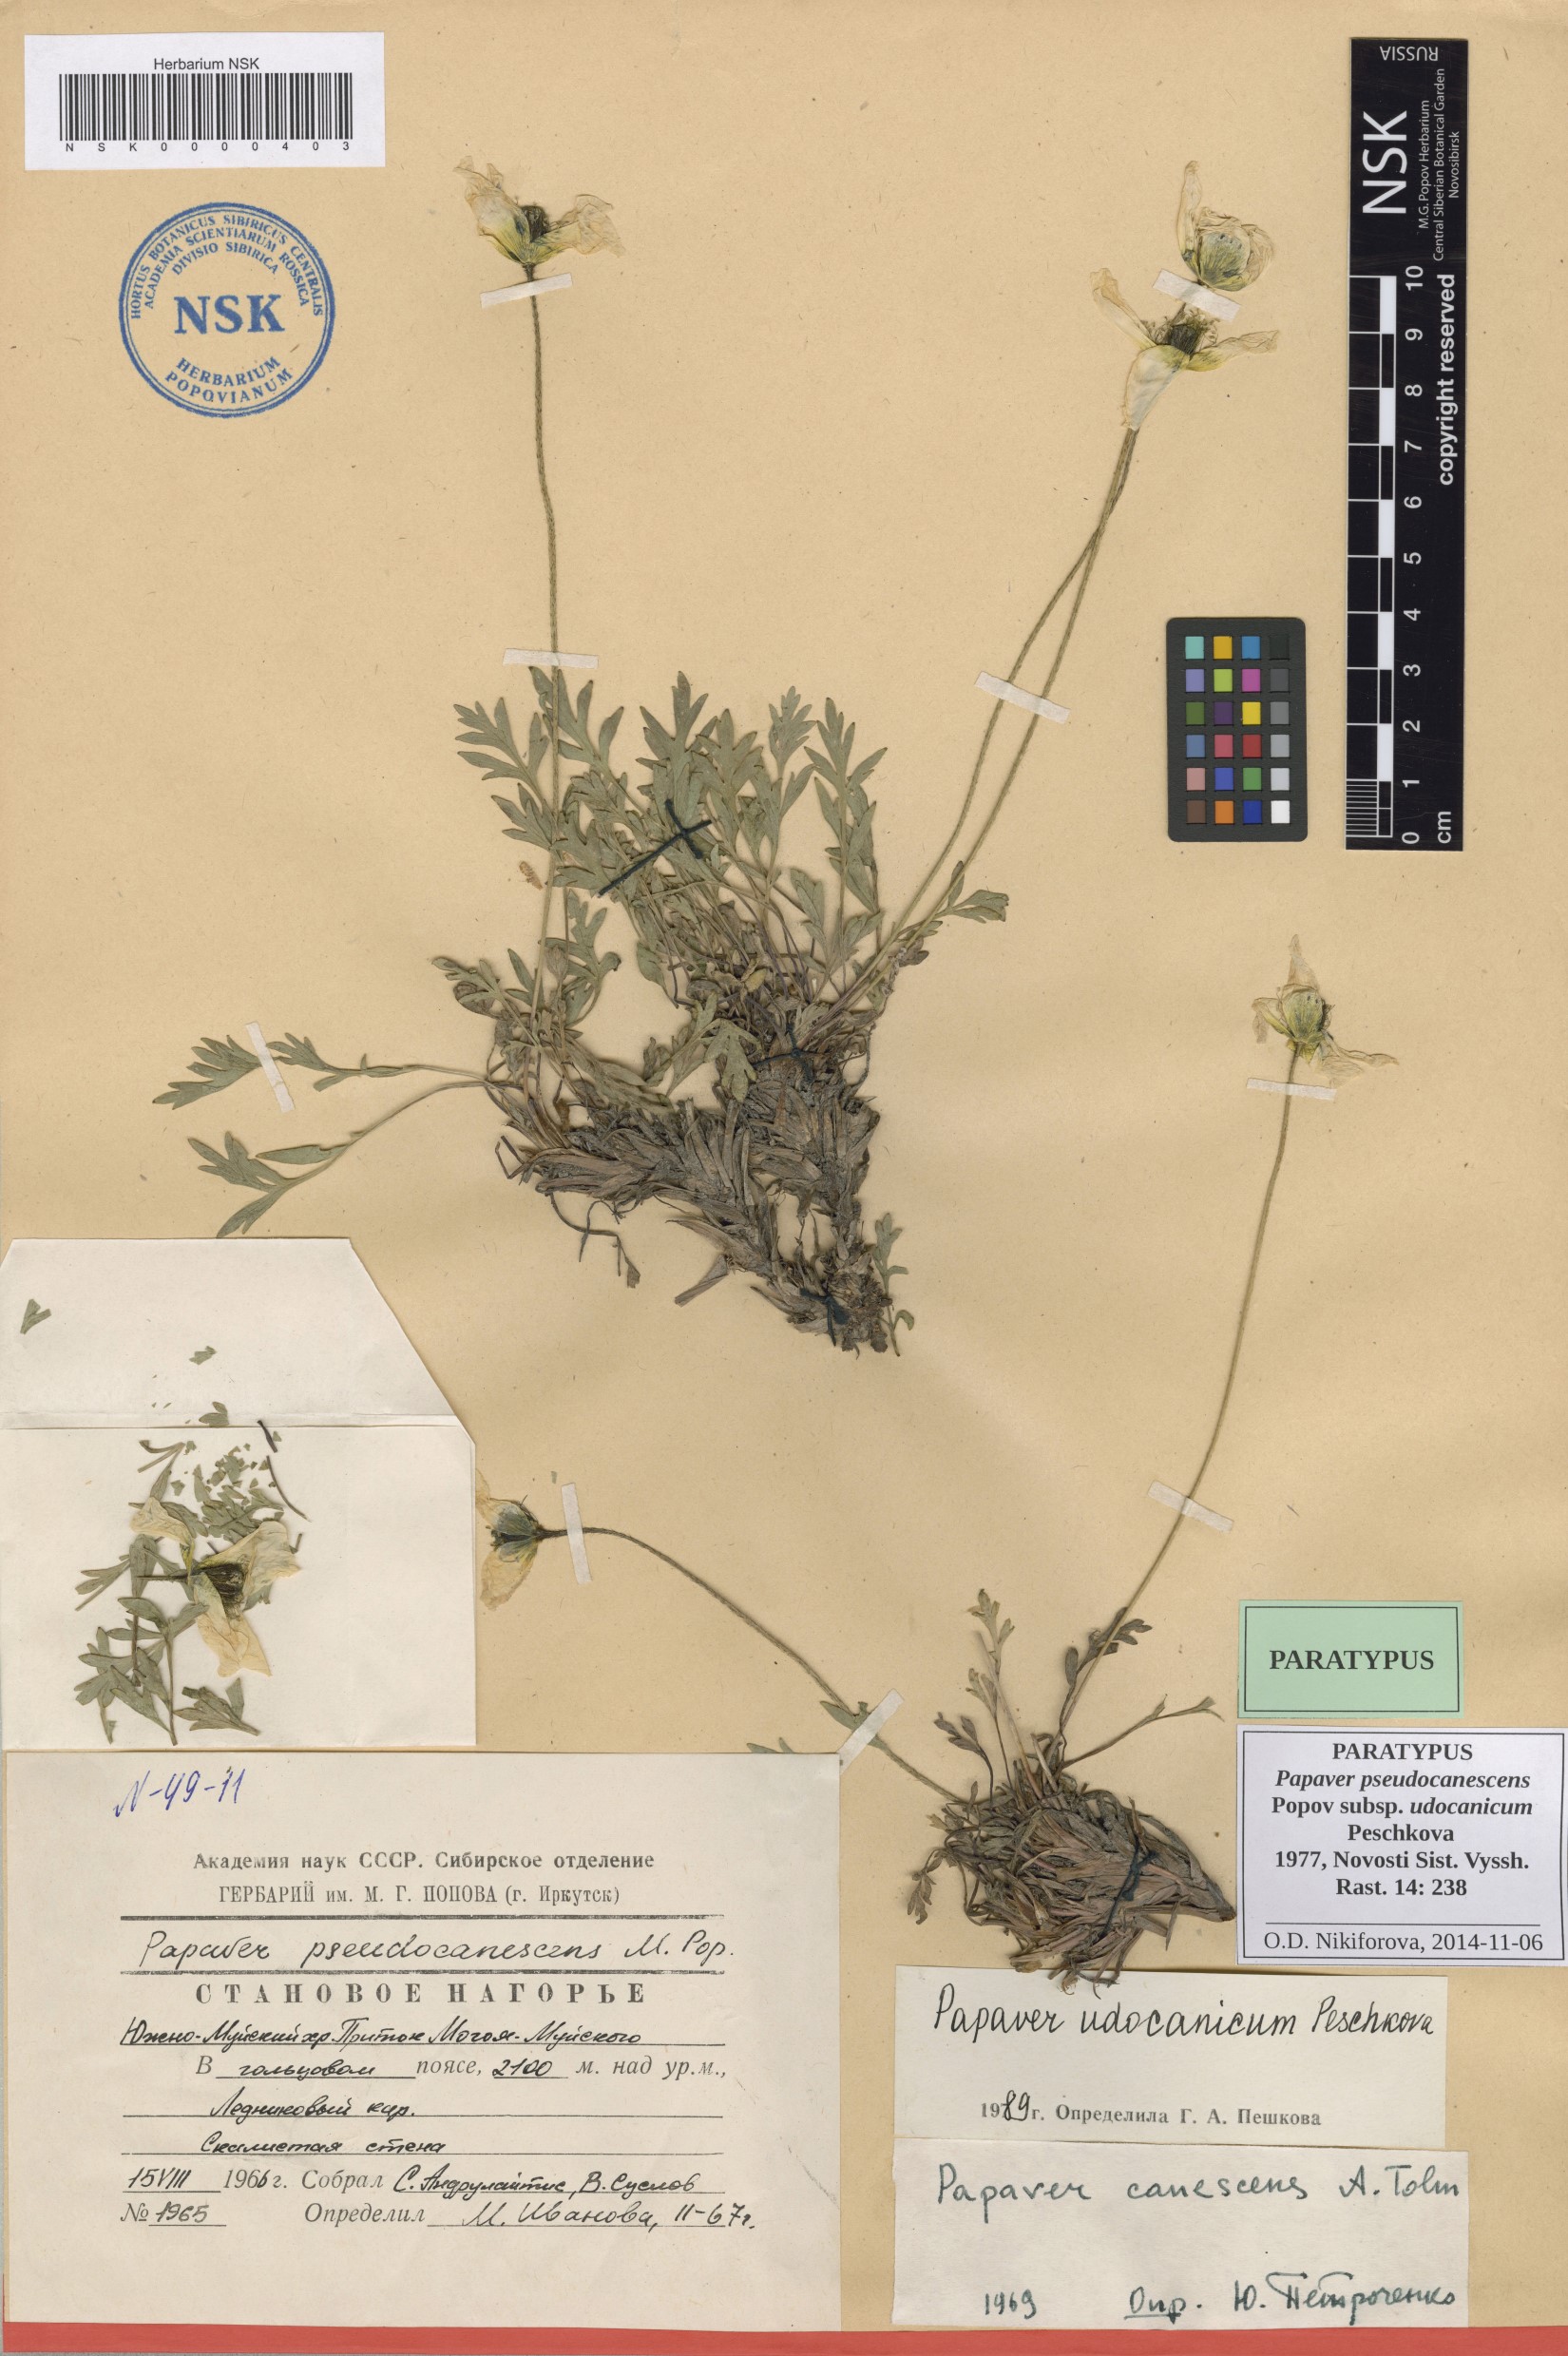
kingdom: Plantae
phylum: Tracheophyta
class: Magnoliopsida
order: Ranunculales
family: Papaveraceae
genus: Papaver
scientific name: Papaver udocanicum
